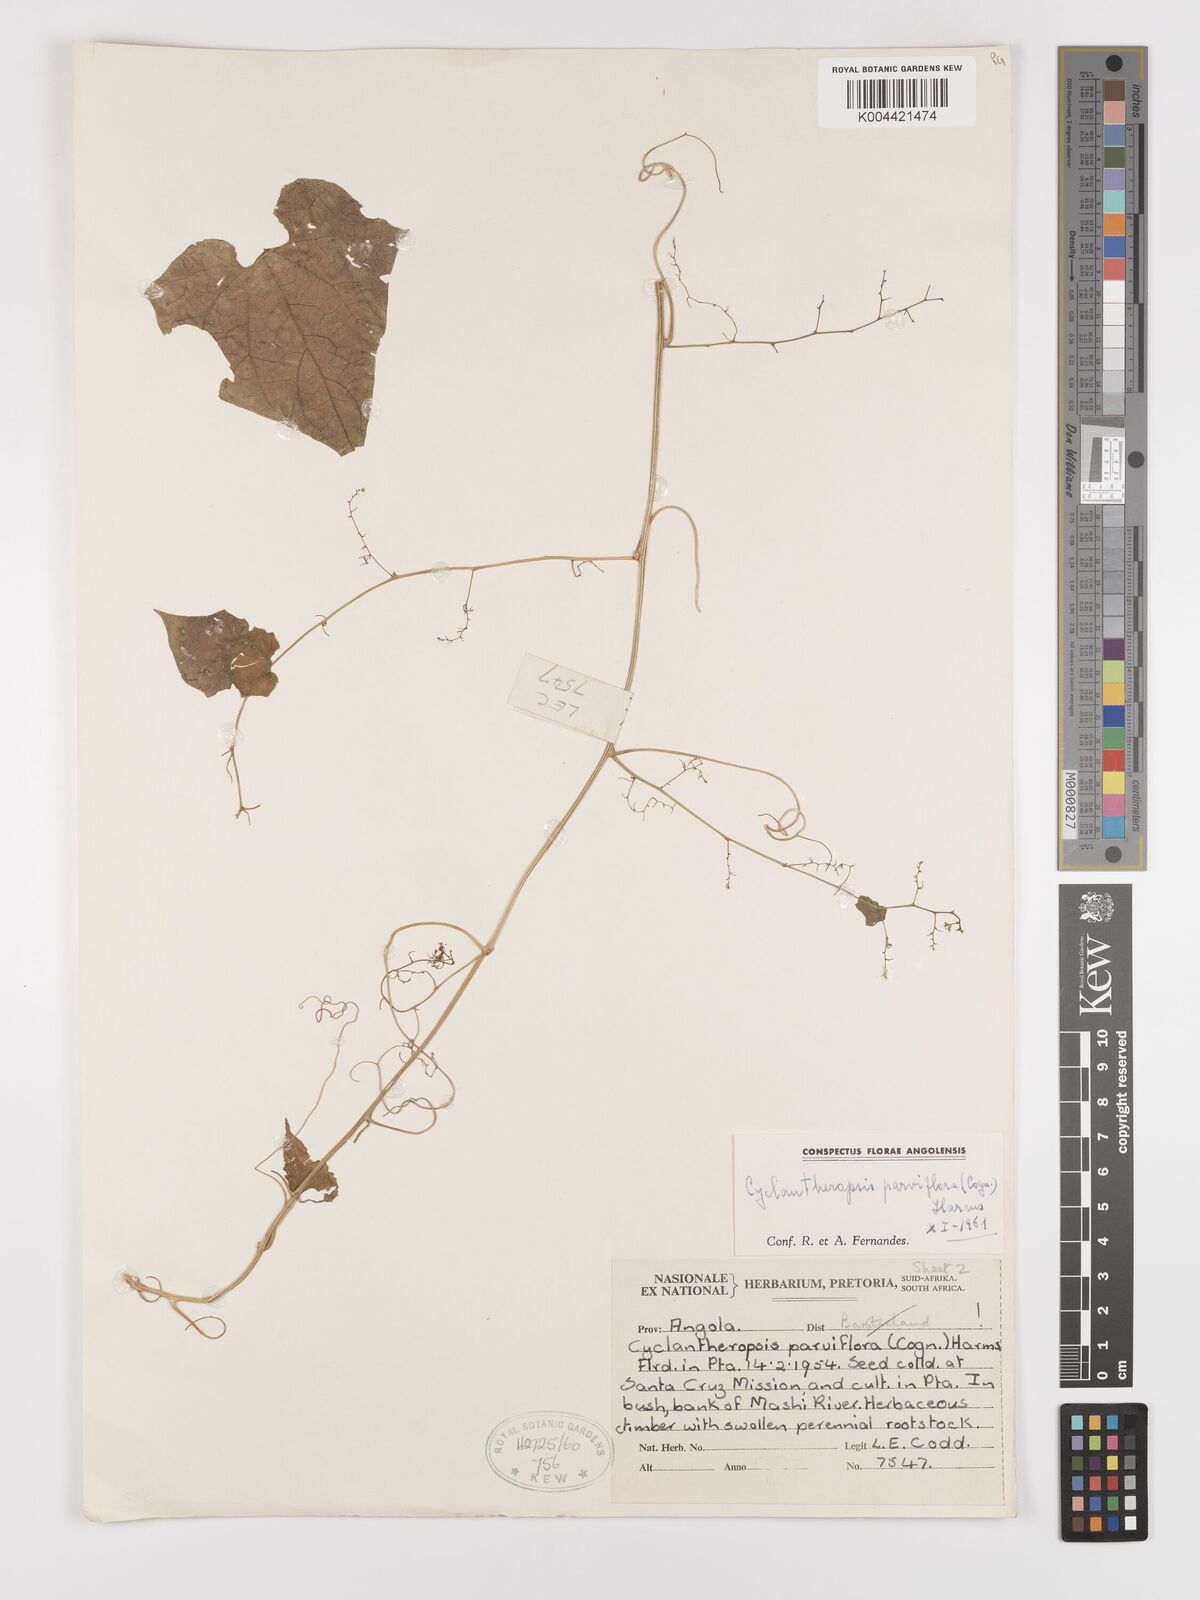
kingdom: Plantae
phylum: Tracheophyta
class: Magnoliopsida
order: Cucurbitales
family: Cucurbitaceae
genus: Cyclantheropsis
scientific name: Cyclantheropsis parviflora
